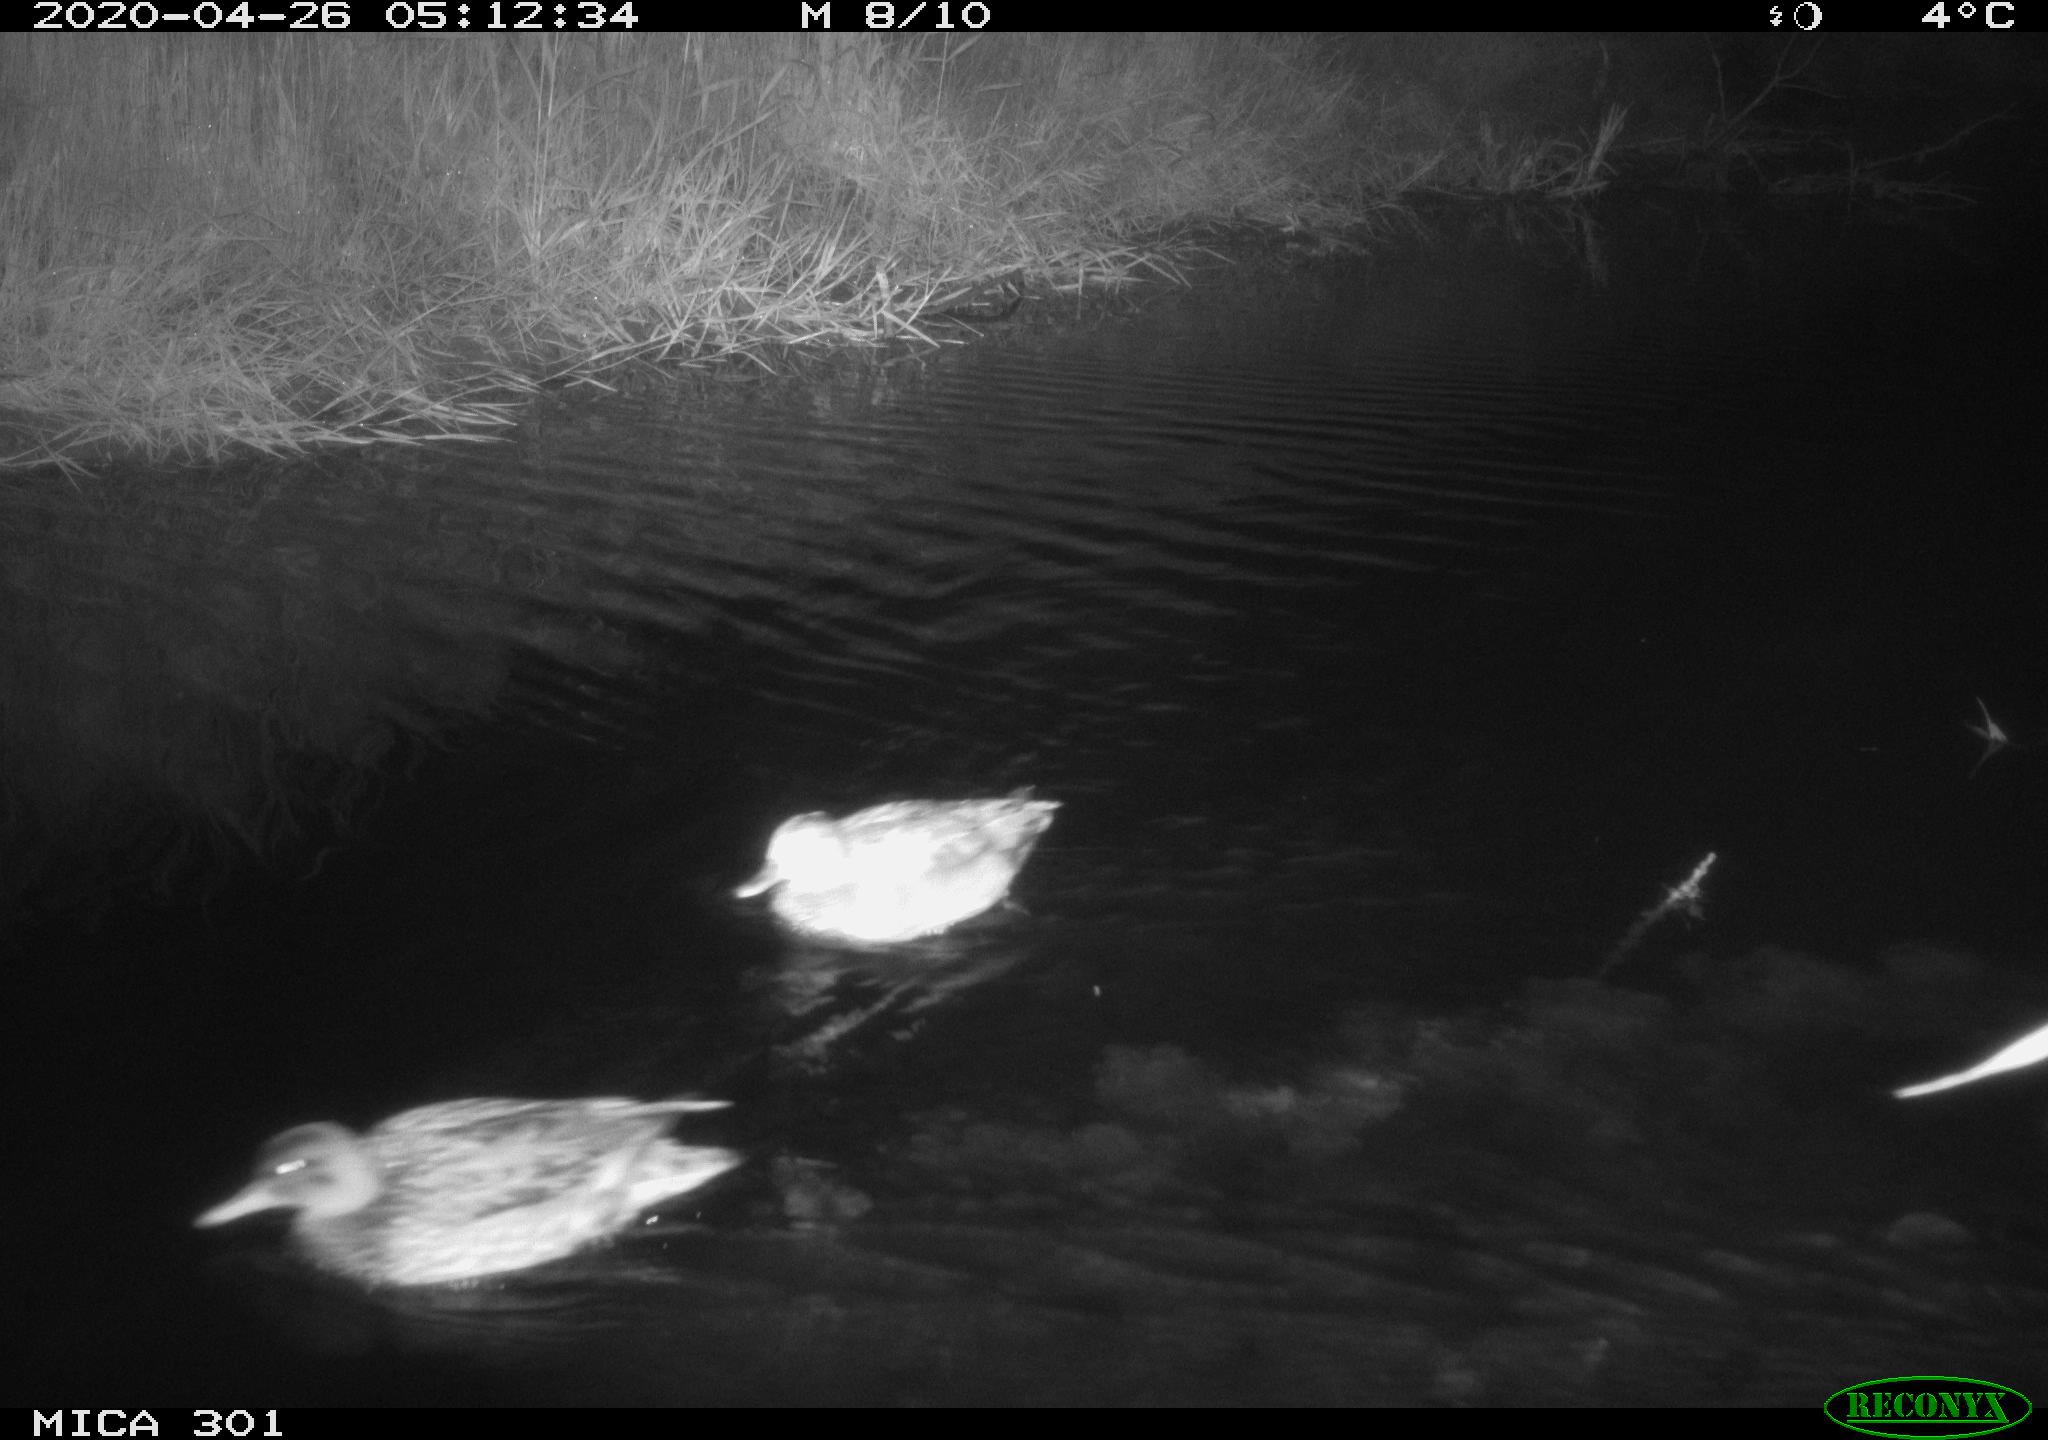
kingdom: Animalia
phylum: Chordata
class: Aves
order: Anseriformes
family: Anatidae
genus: Mareca
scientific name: Mareca strepera
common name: Gadwall
